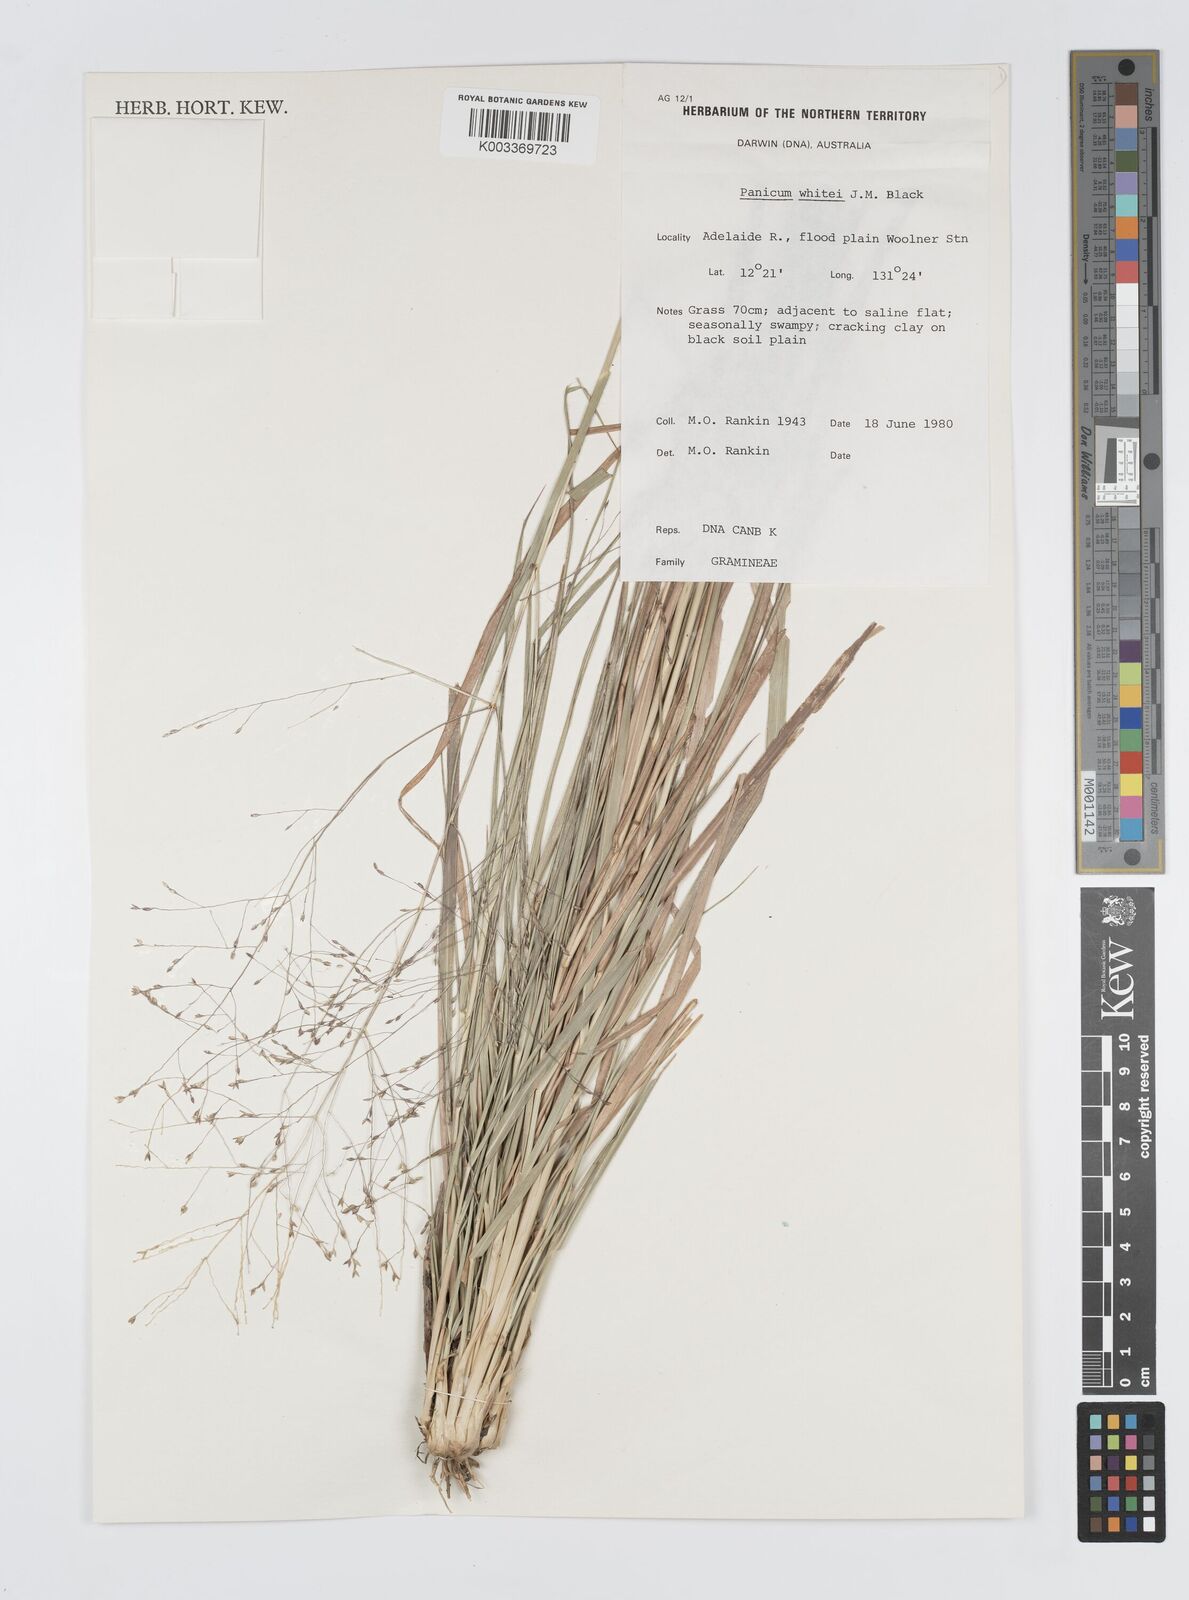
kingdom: Plantae
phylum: Tracheophyta
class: Liliopsida
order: Poales
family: Poaceae
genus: Panicum
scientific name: Panicum laevinode
